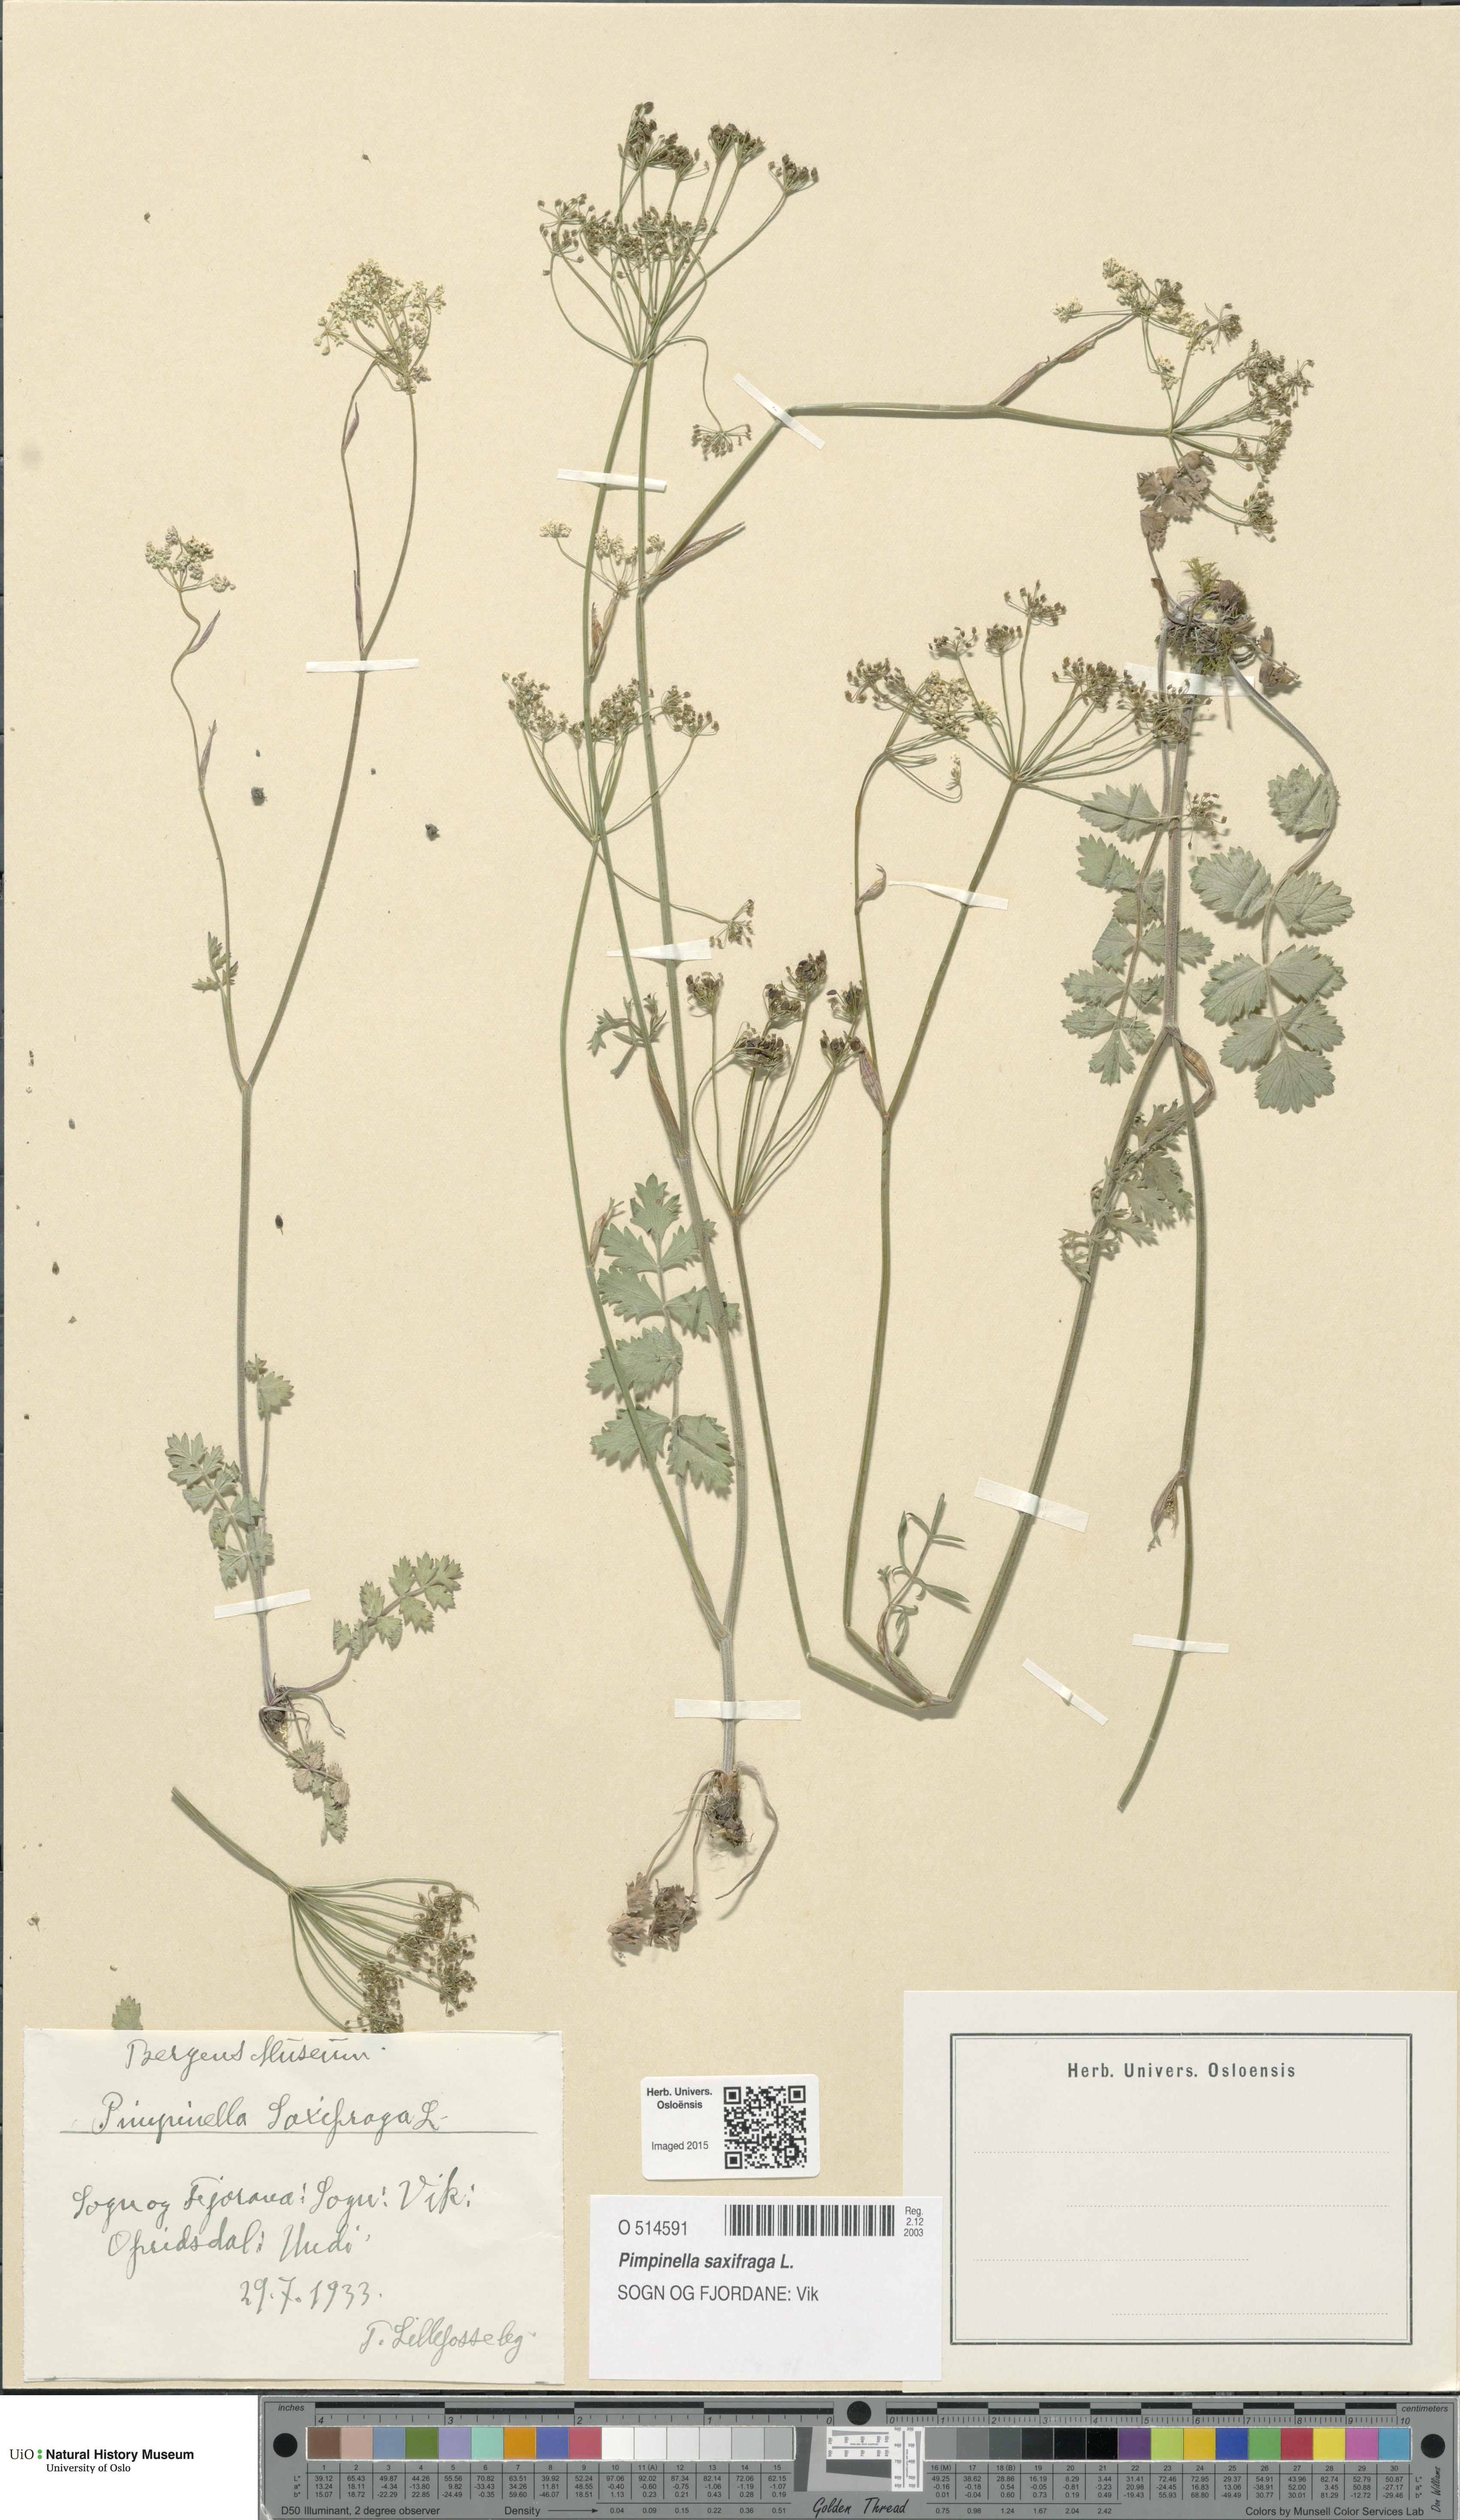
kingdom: Plantae
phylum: Tracheophyta
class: Magnoliopsida
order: Apiales
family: Apiaceae
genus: Pimpinella
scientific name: Pimpinella saxifraga
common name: Burnet-saxifrage
